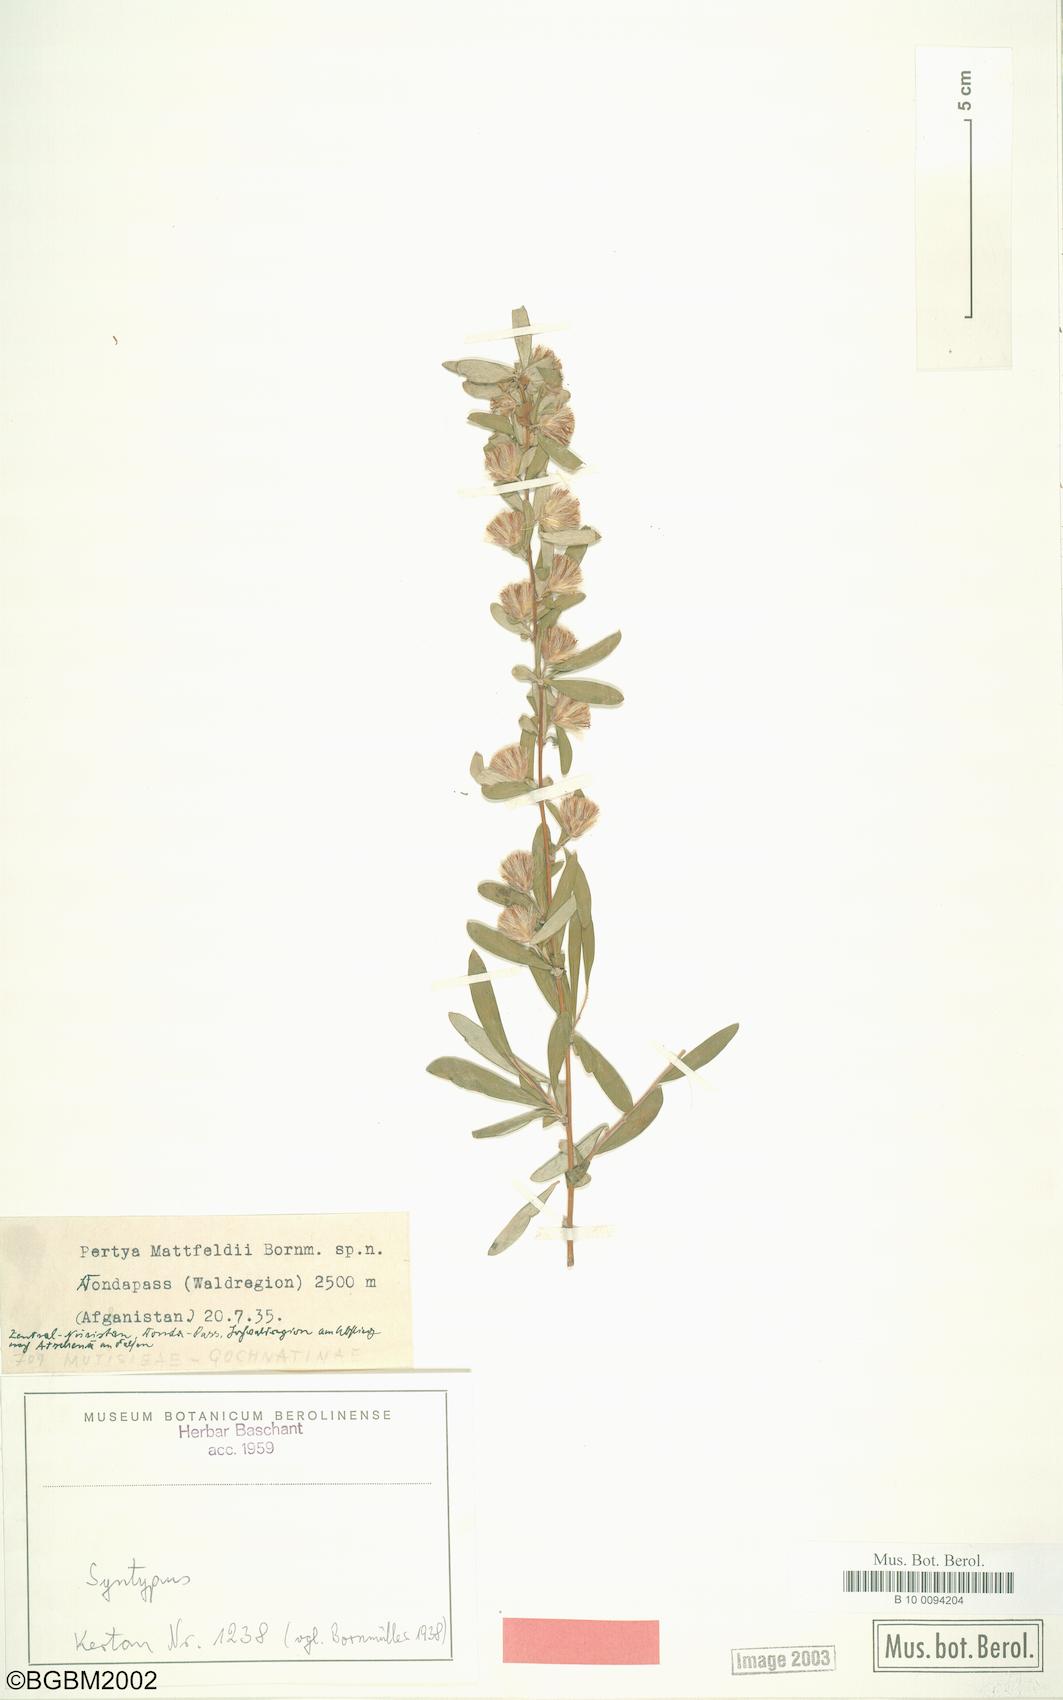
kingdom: Plantae
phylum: Tracheophyta
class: Magnoliopsida
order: Asterales
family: Asteraceae
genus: Pertya
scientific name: Pertya aitchisonii
